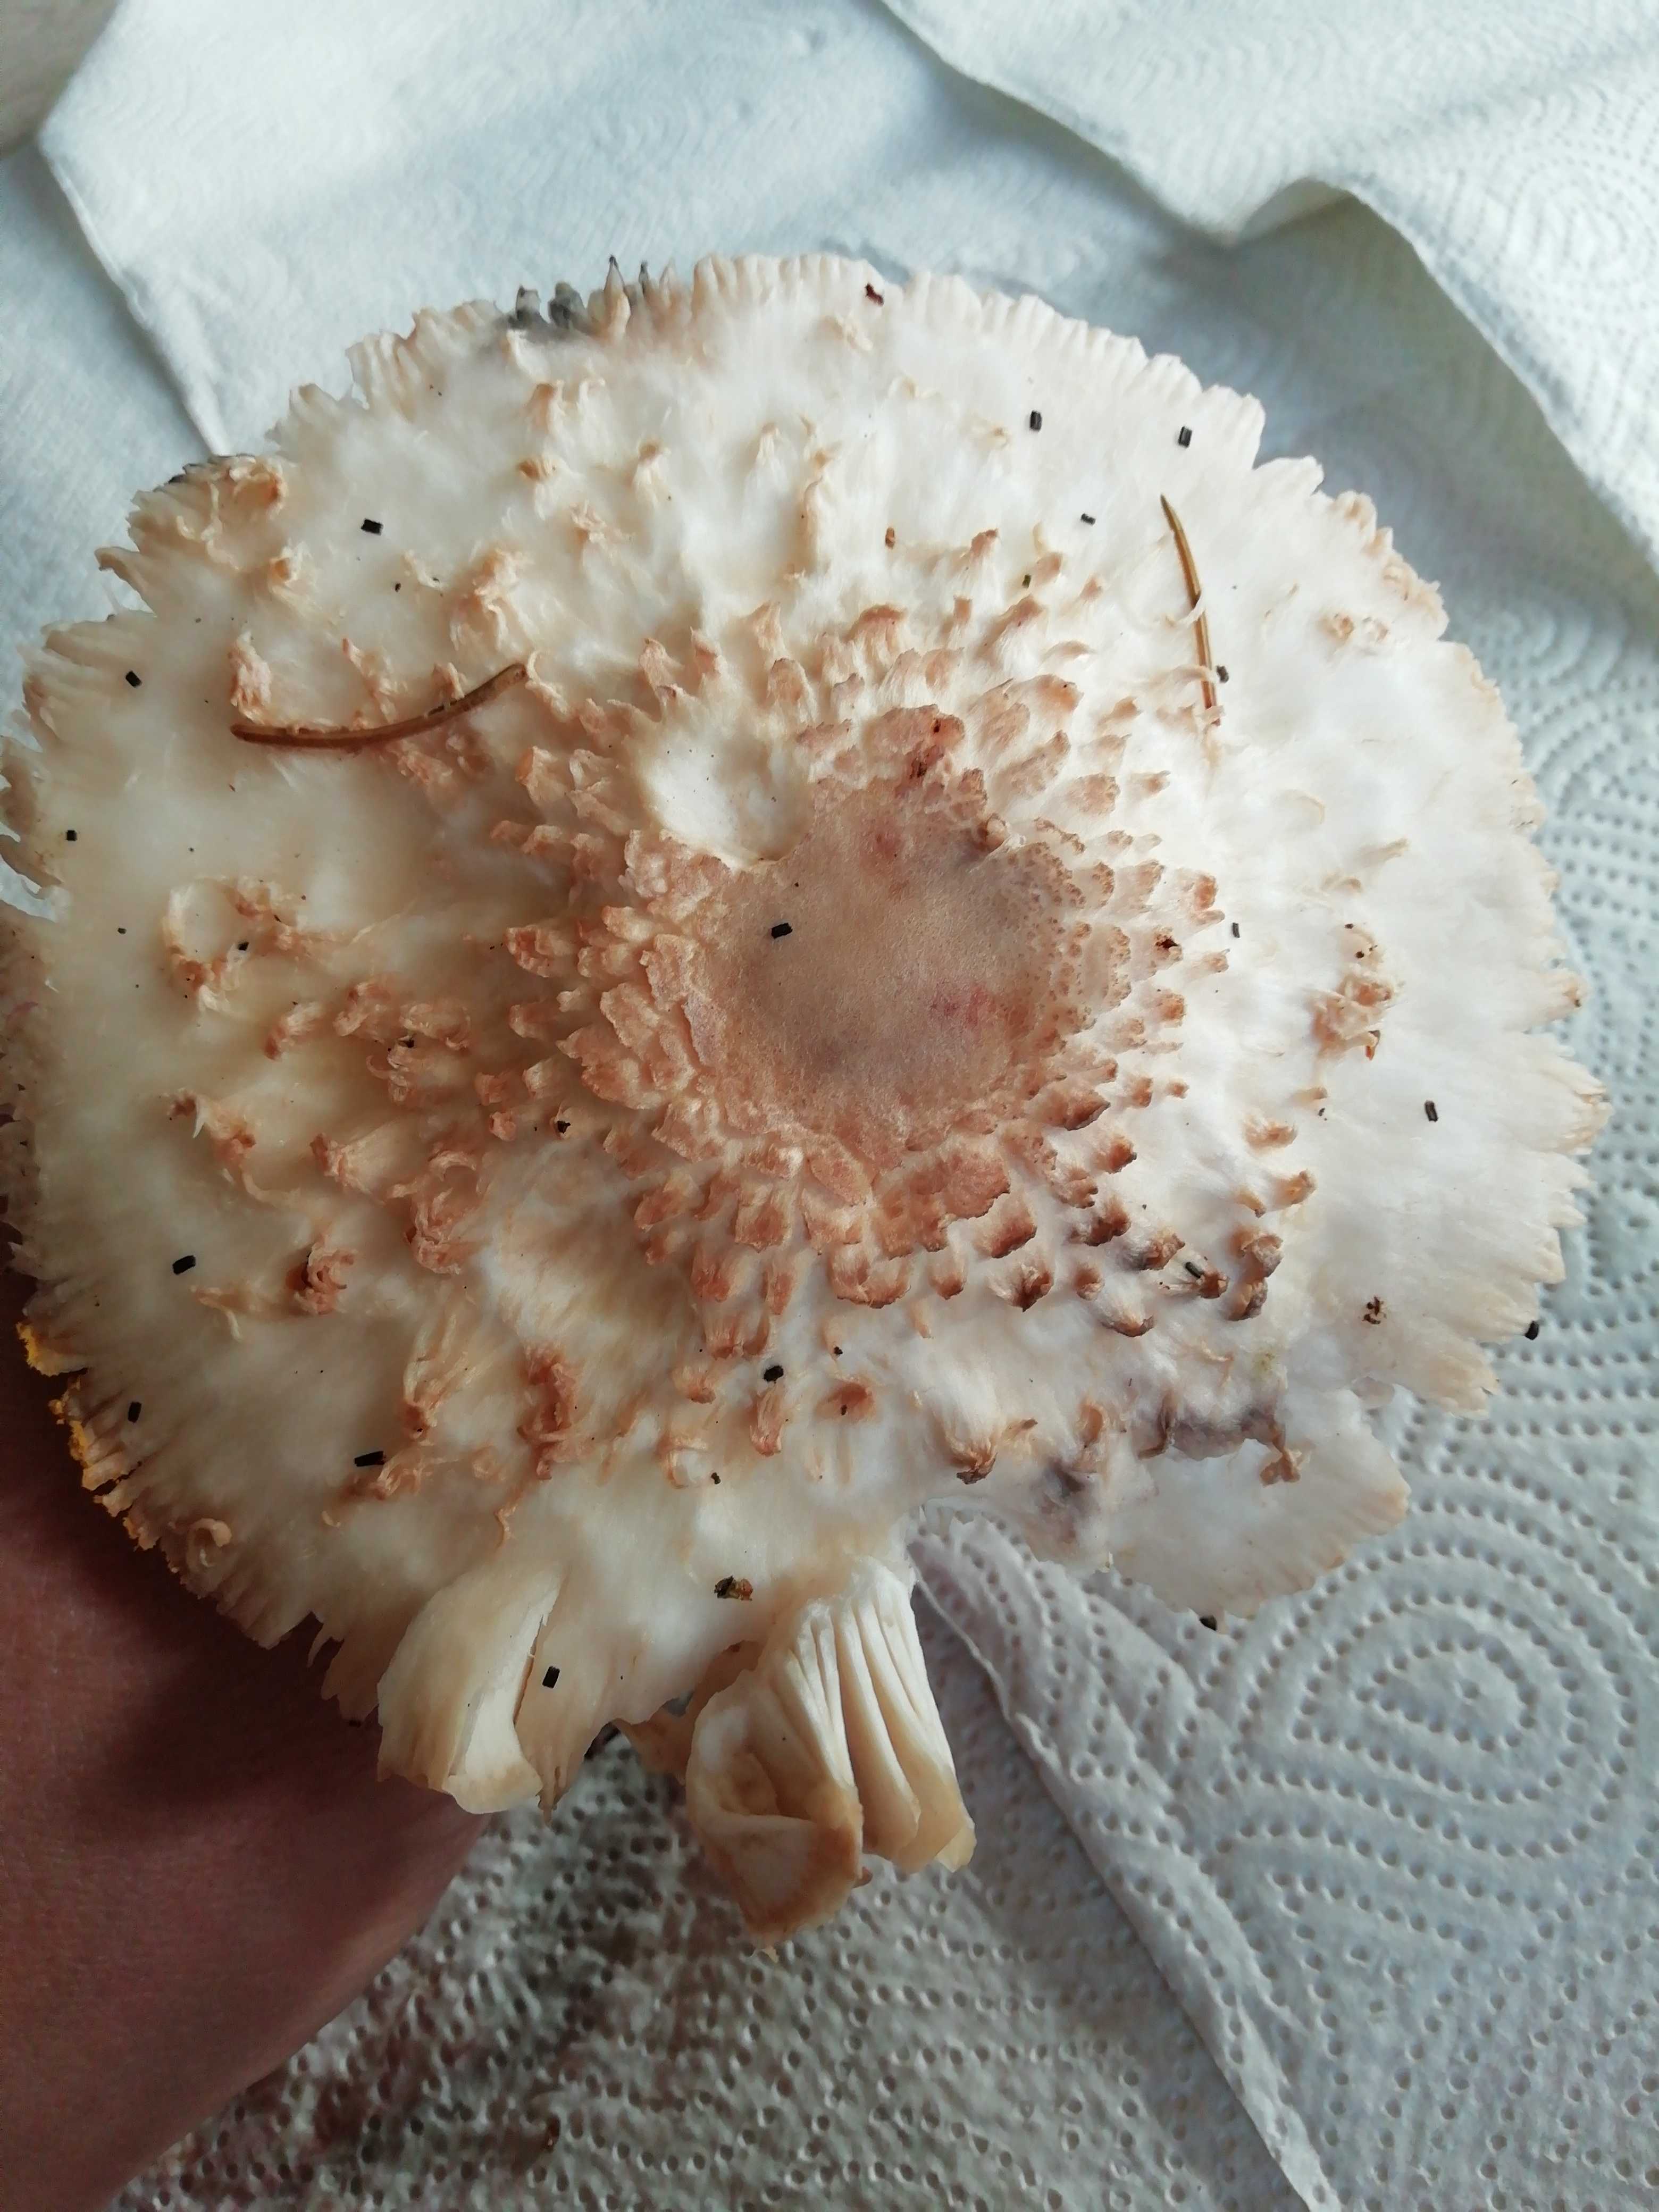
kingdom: Fungi
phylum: Basidiomycota
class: Agaricomycetes
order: Agaricales
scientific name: Agaricales
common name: champignonordenen
